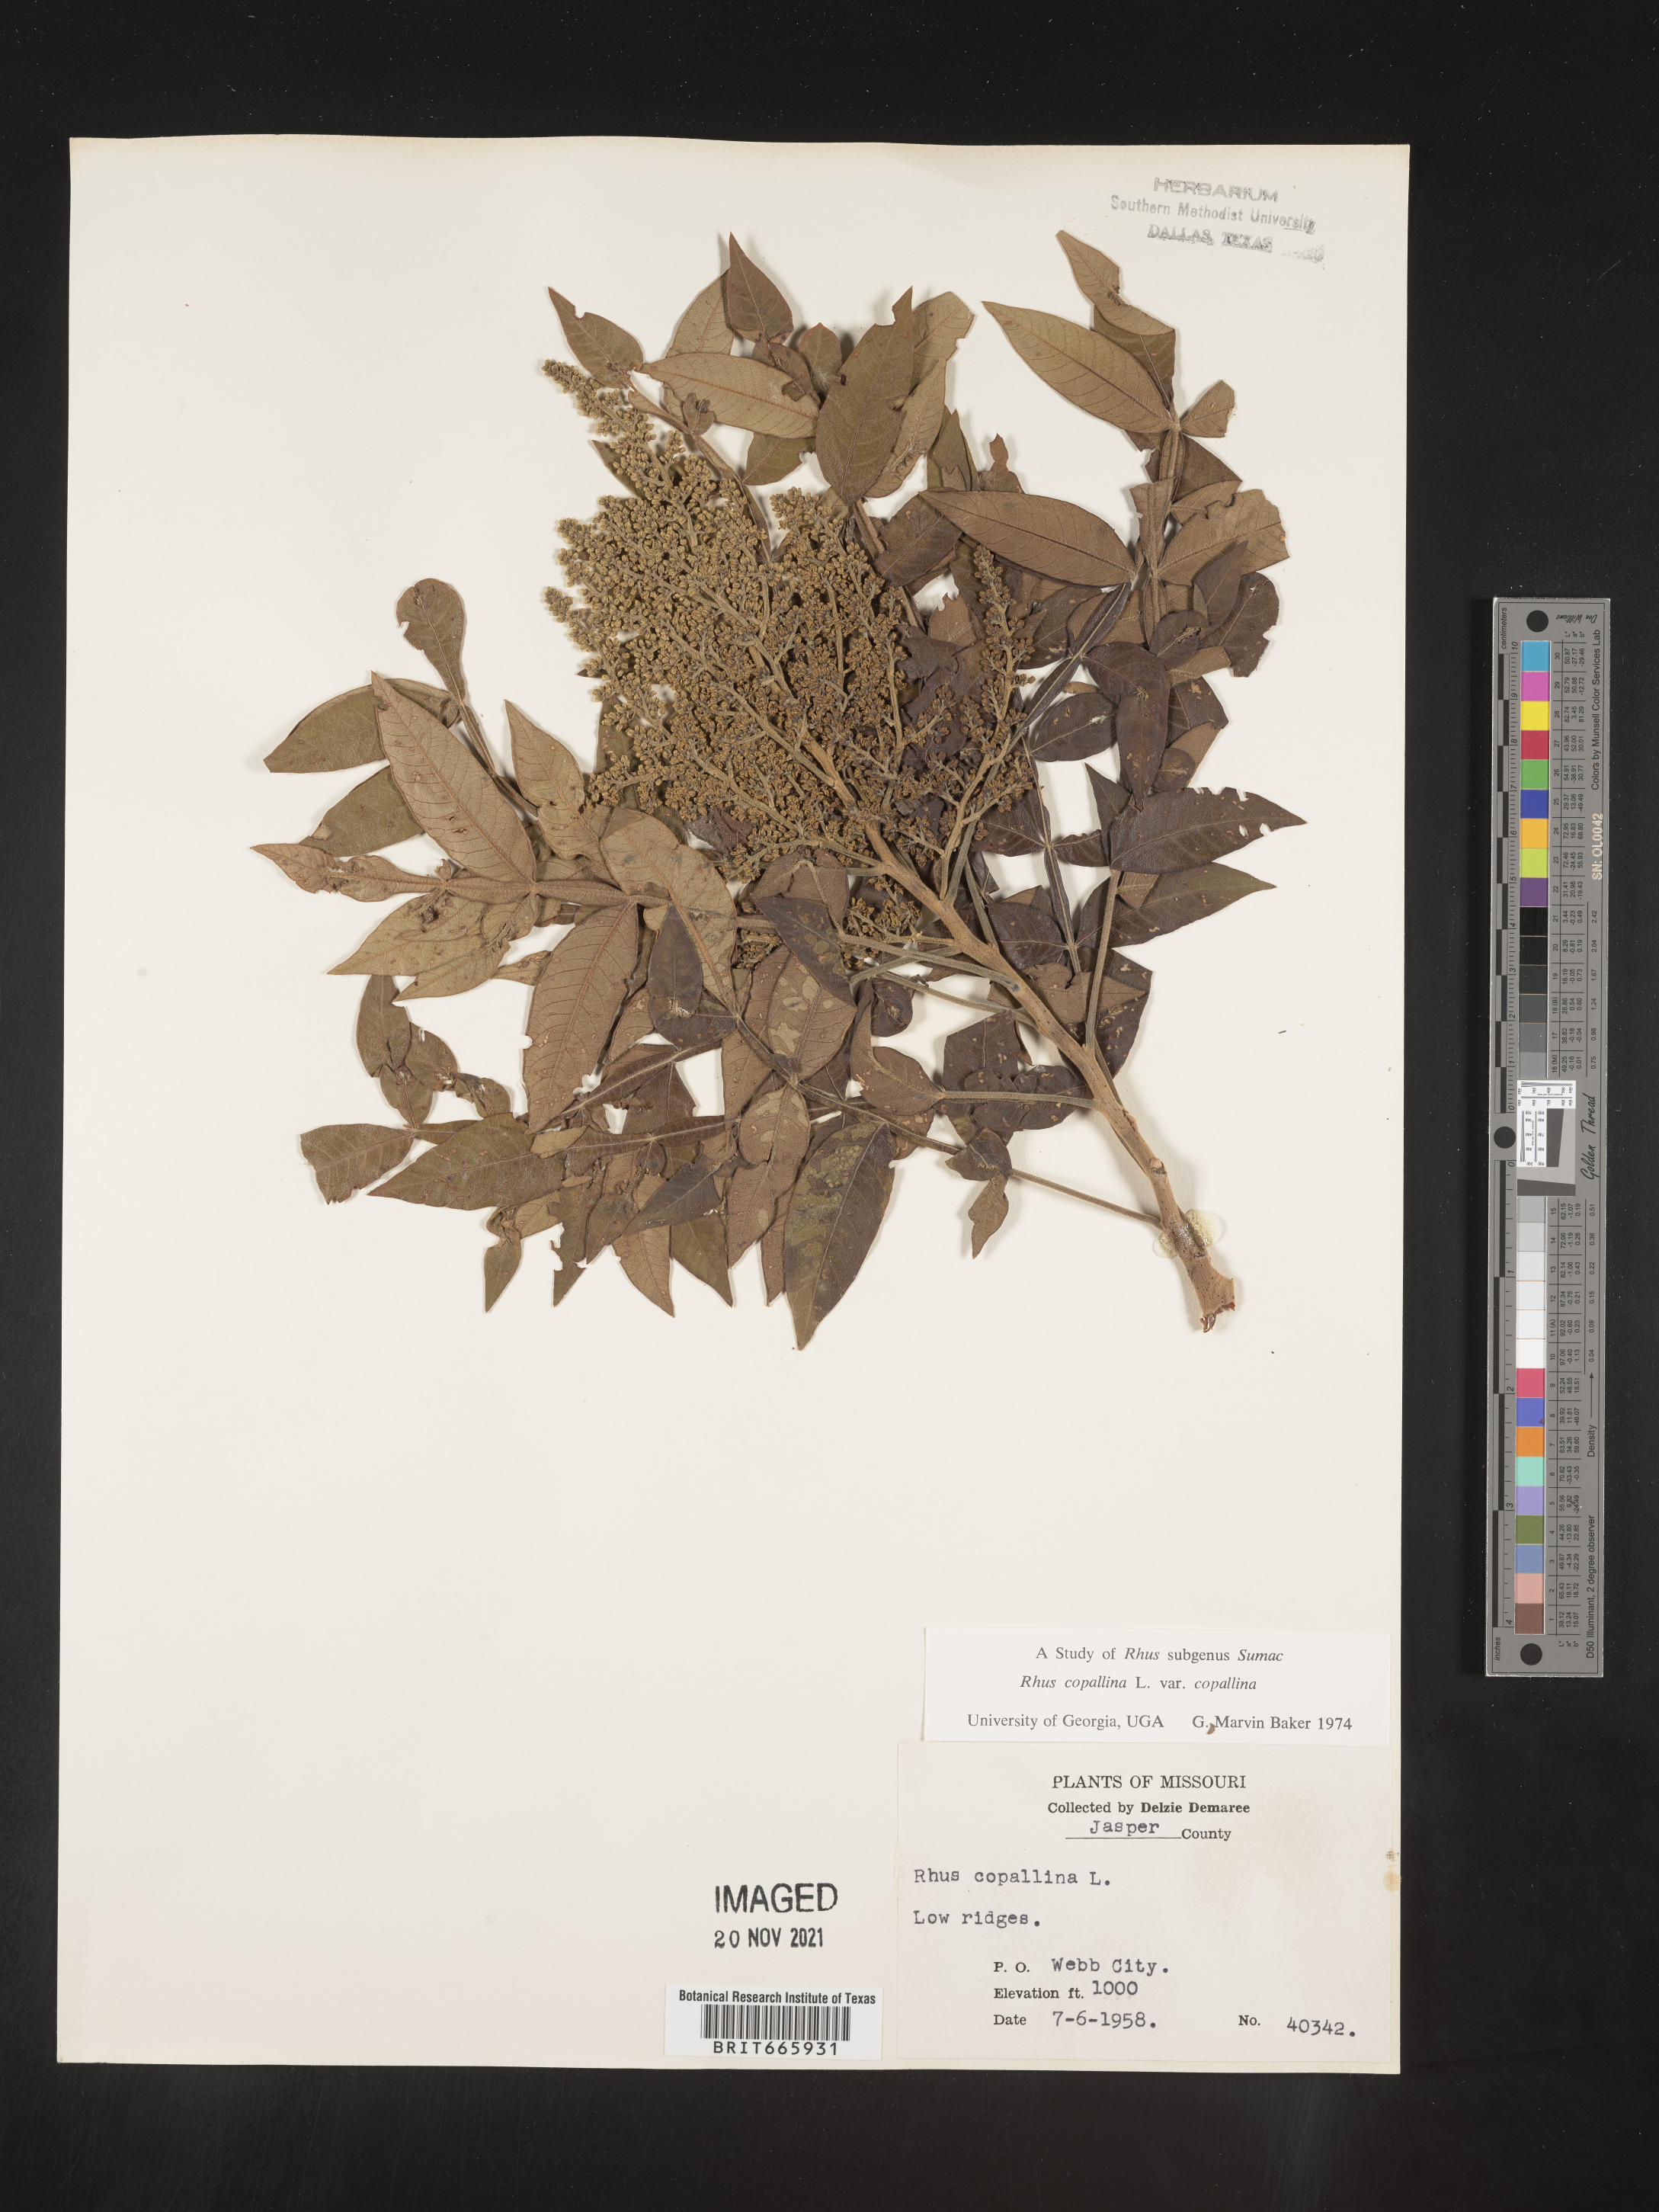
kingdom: Plantae
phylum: Tracheophyta
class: Magnoliopsida
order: Sapindales
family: Anacardiaceae
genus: Rhus
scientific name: Rhus copallina
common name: Shining sumac
